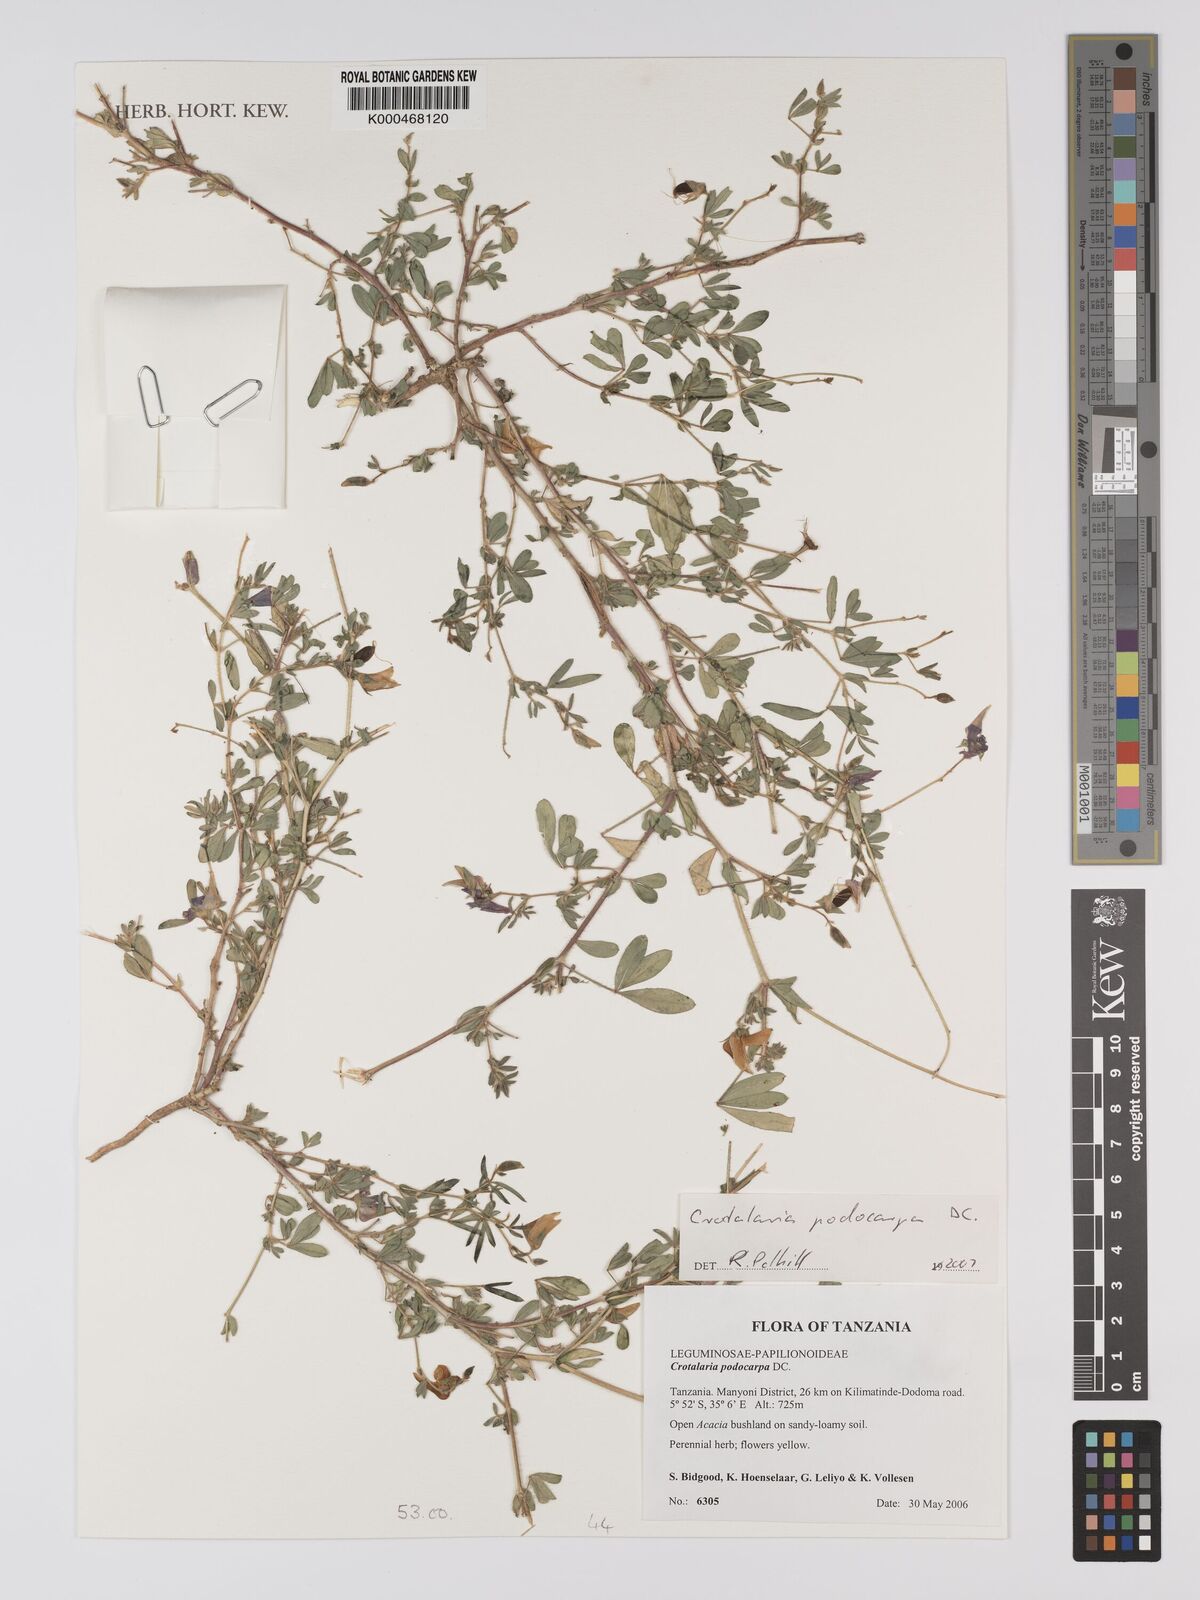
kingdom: Plantae
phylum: Tracheophyta
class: Magnoliopsida
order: Fabales
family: Fabaceae
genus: Crotalaria
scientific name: Crotalaria podocarpa
